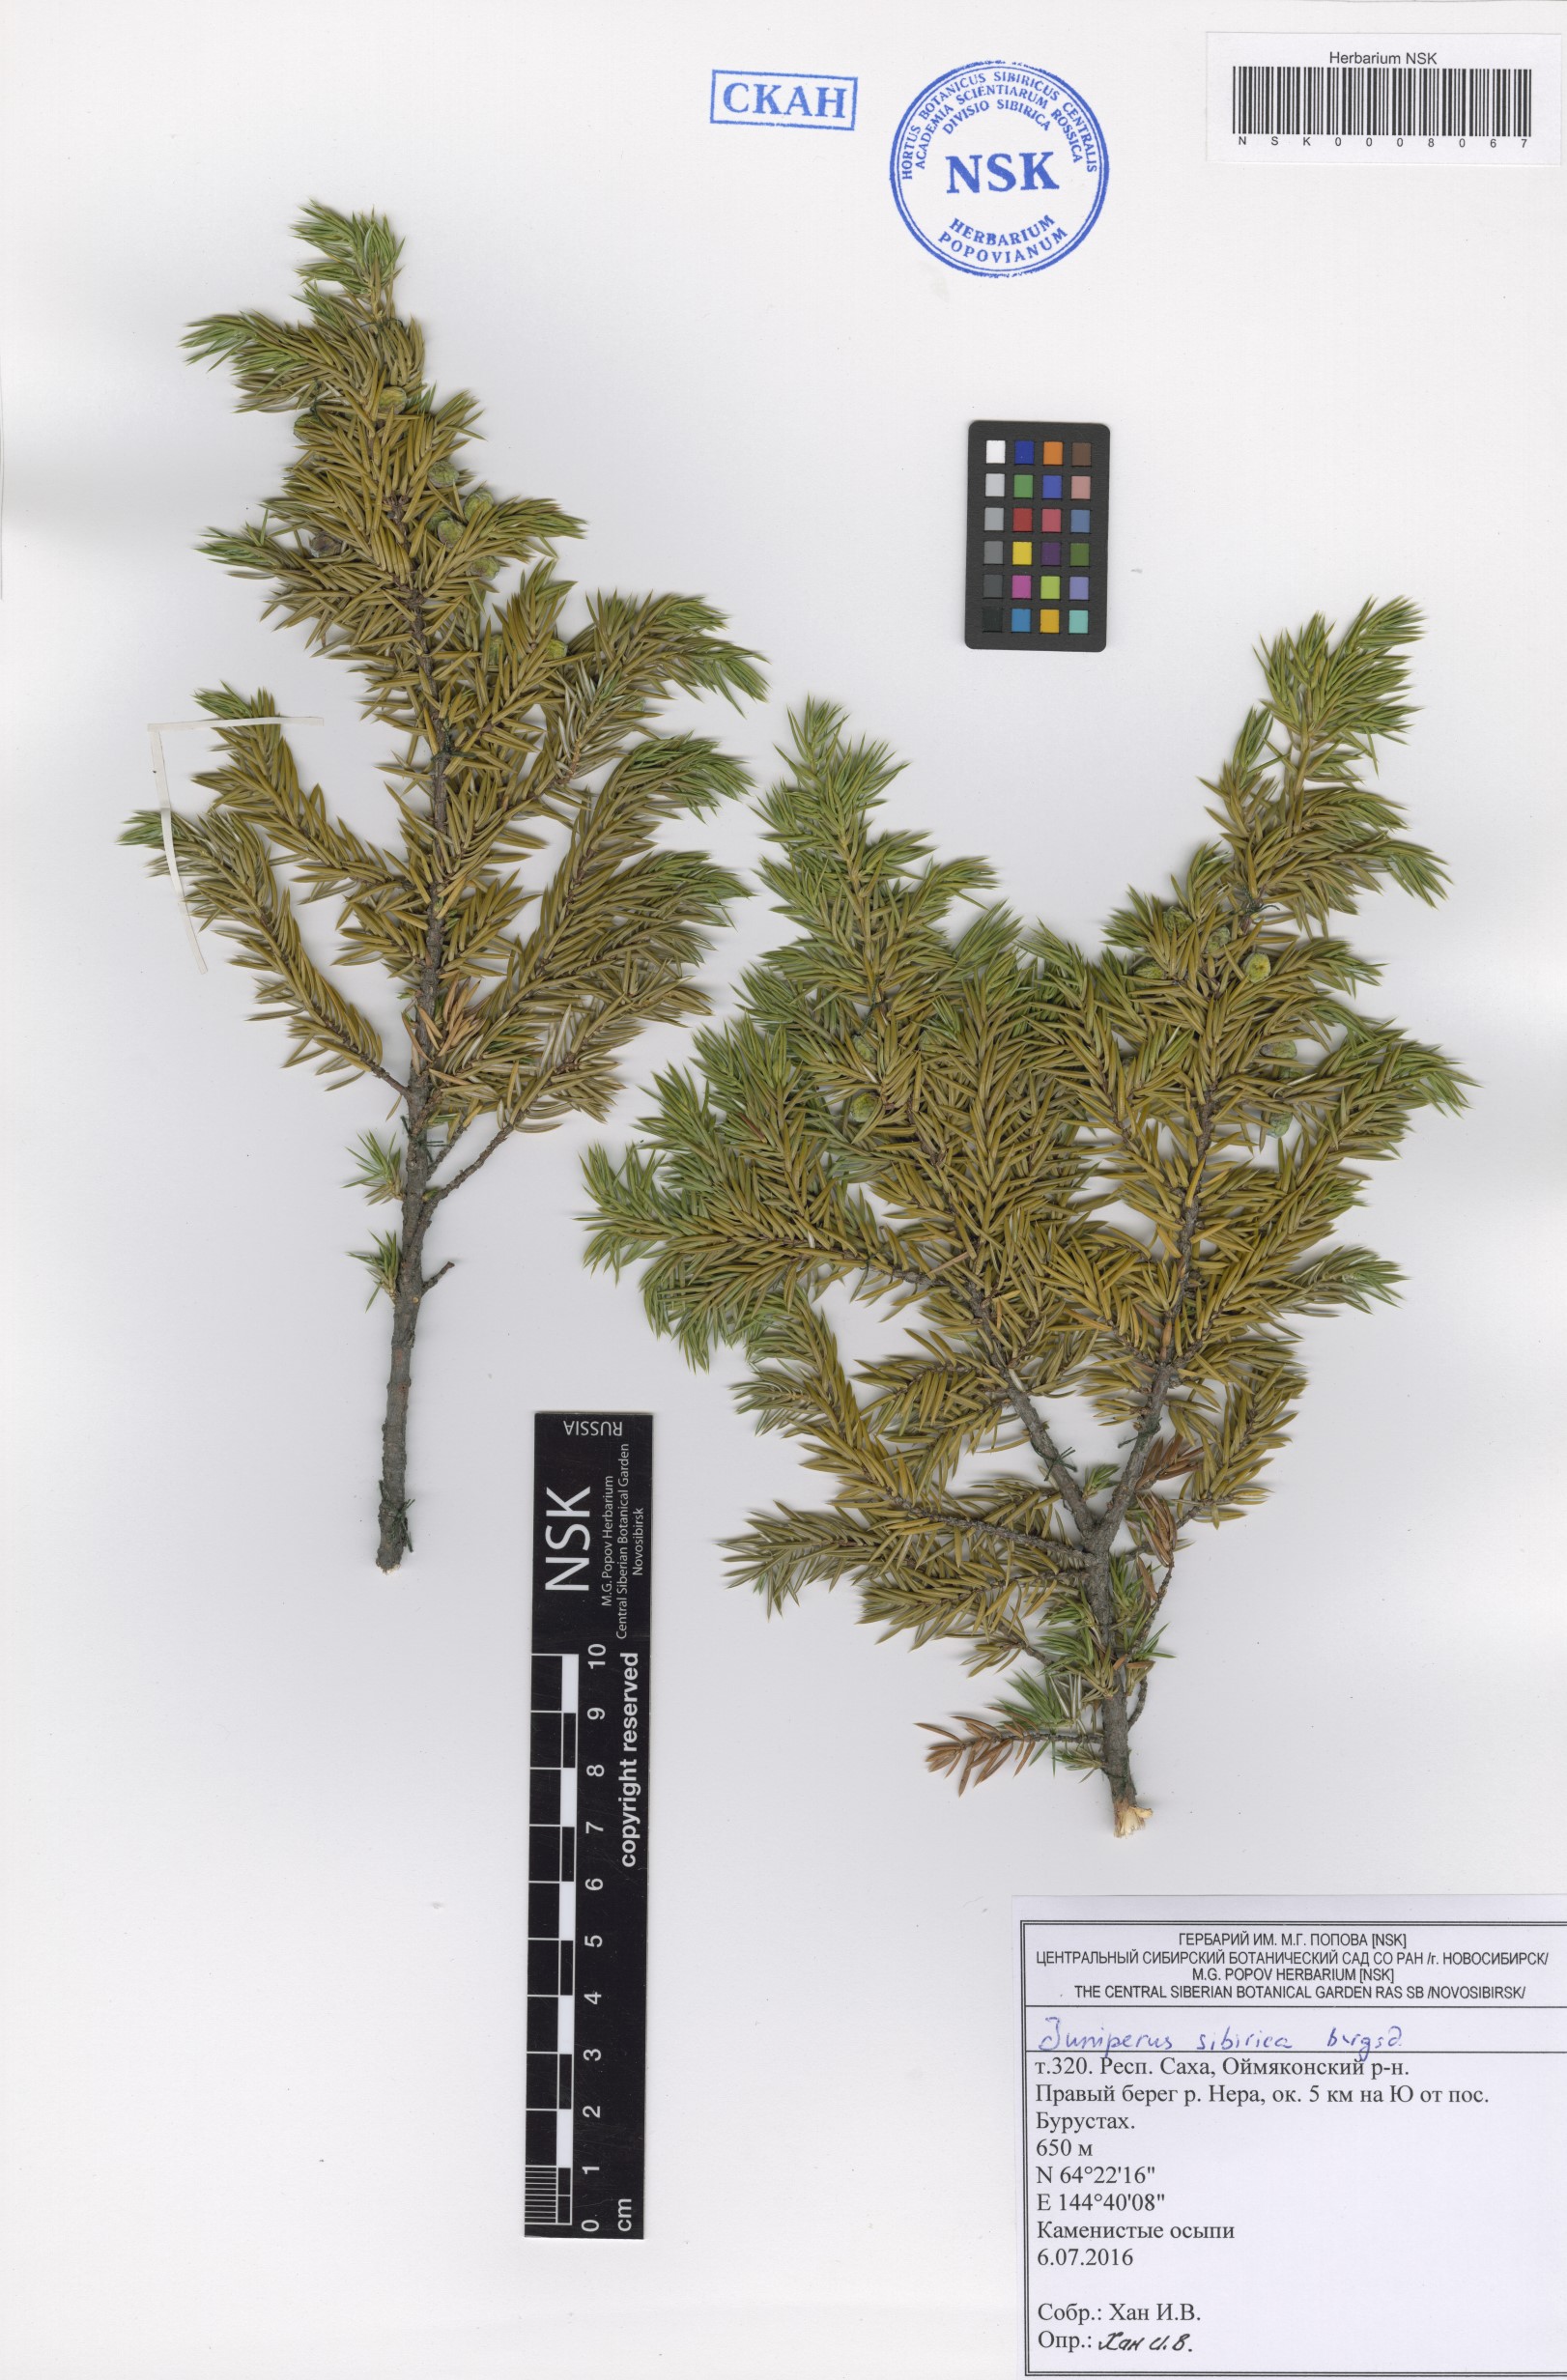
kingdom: Plantae
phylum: Tracheophyta
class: Pinopsida
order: Pinales
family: Cupressaceae
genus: Juniperus
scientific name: Juniperus communis
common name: Common juniper
